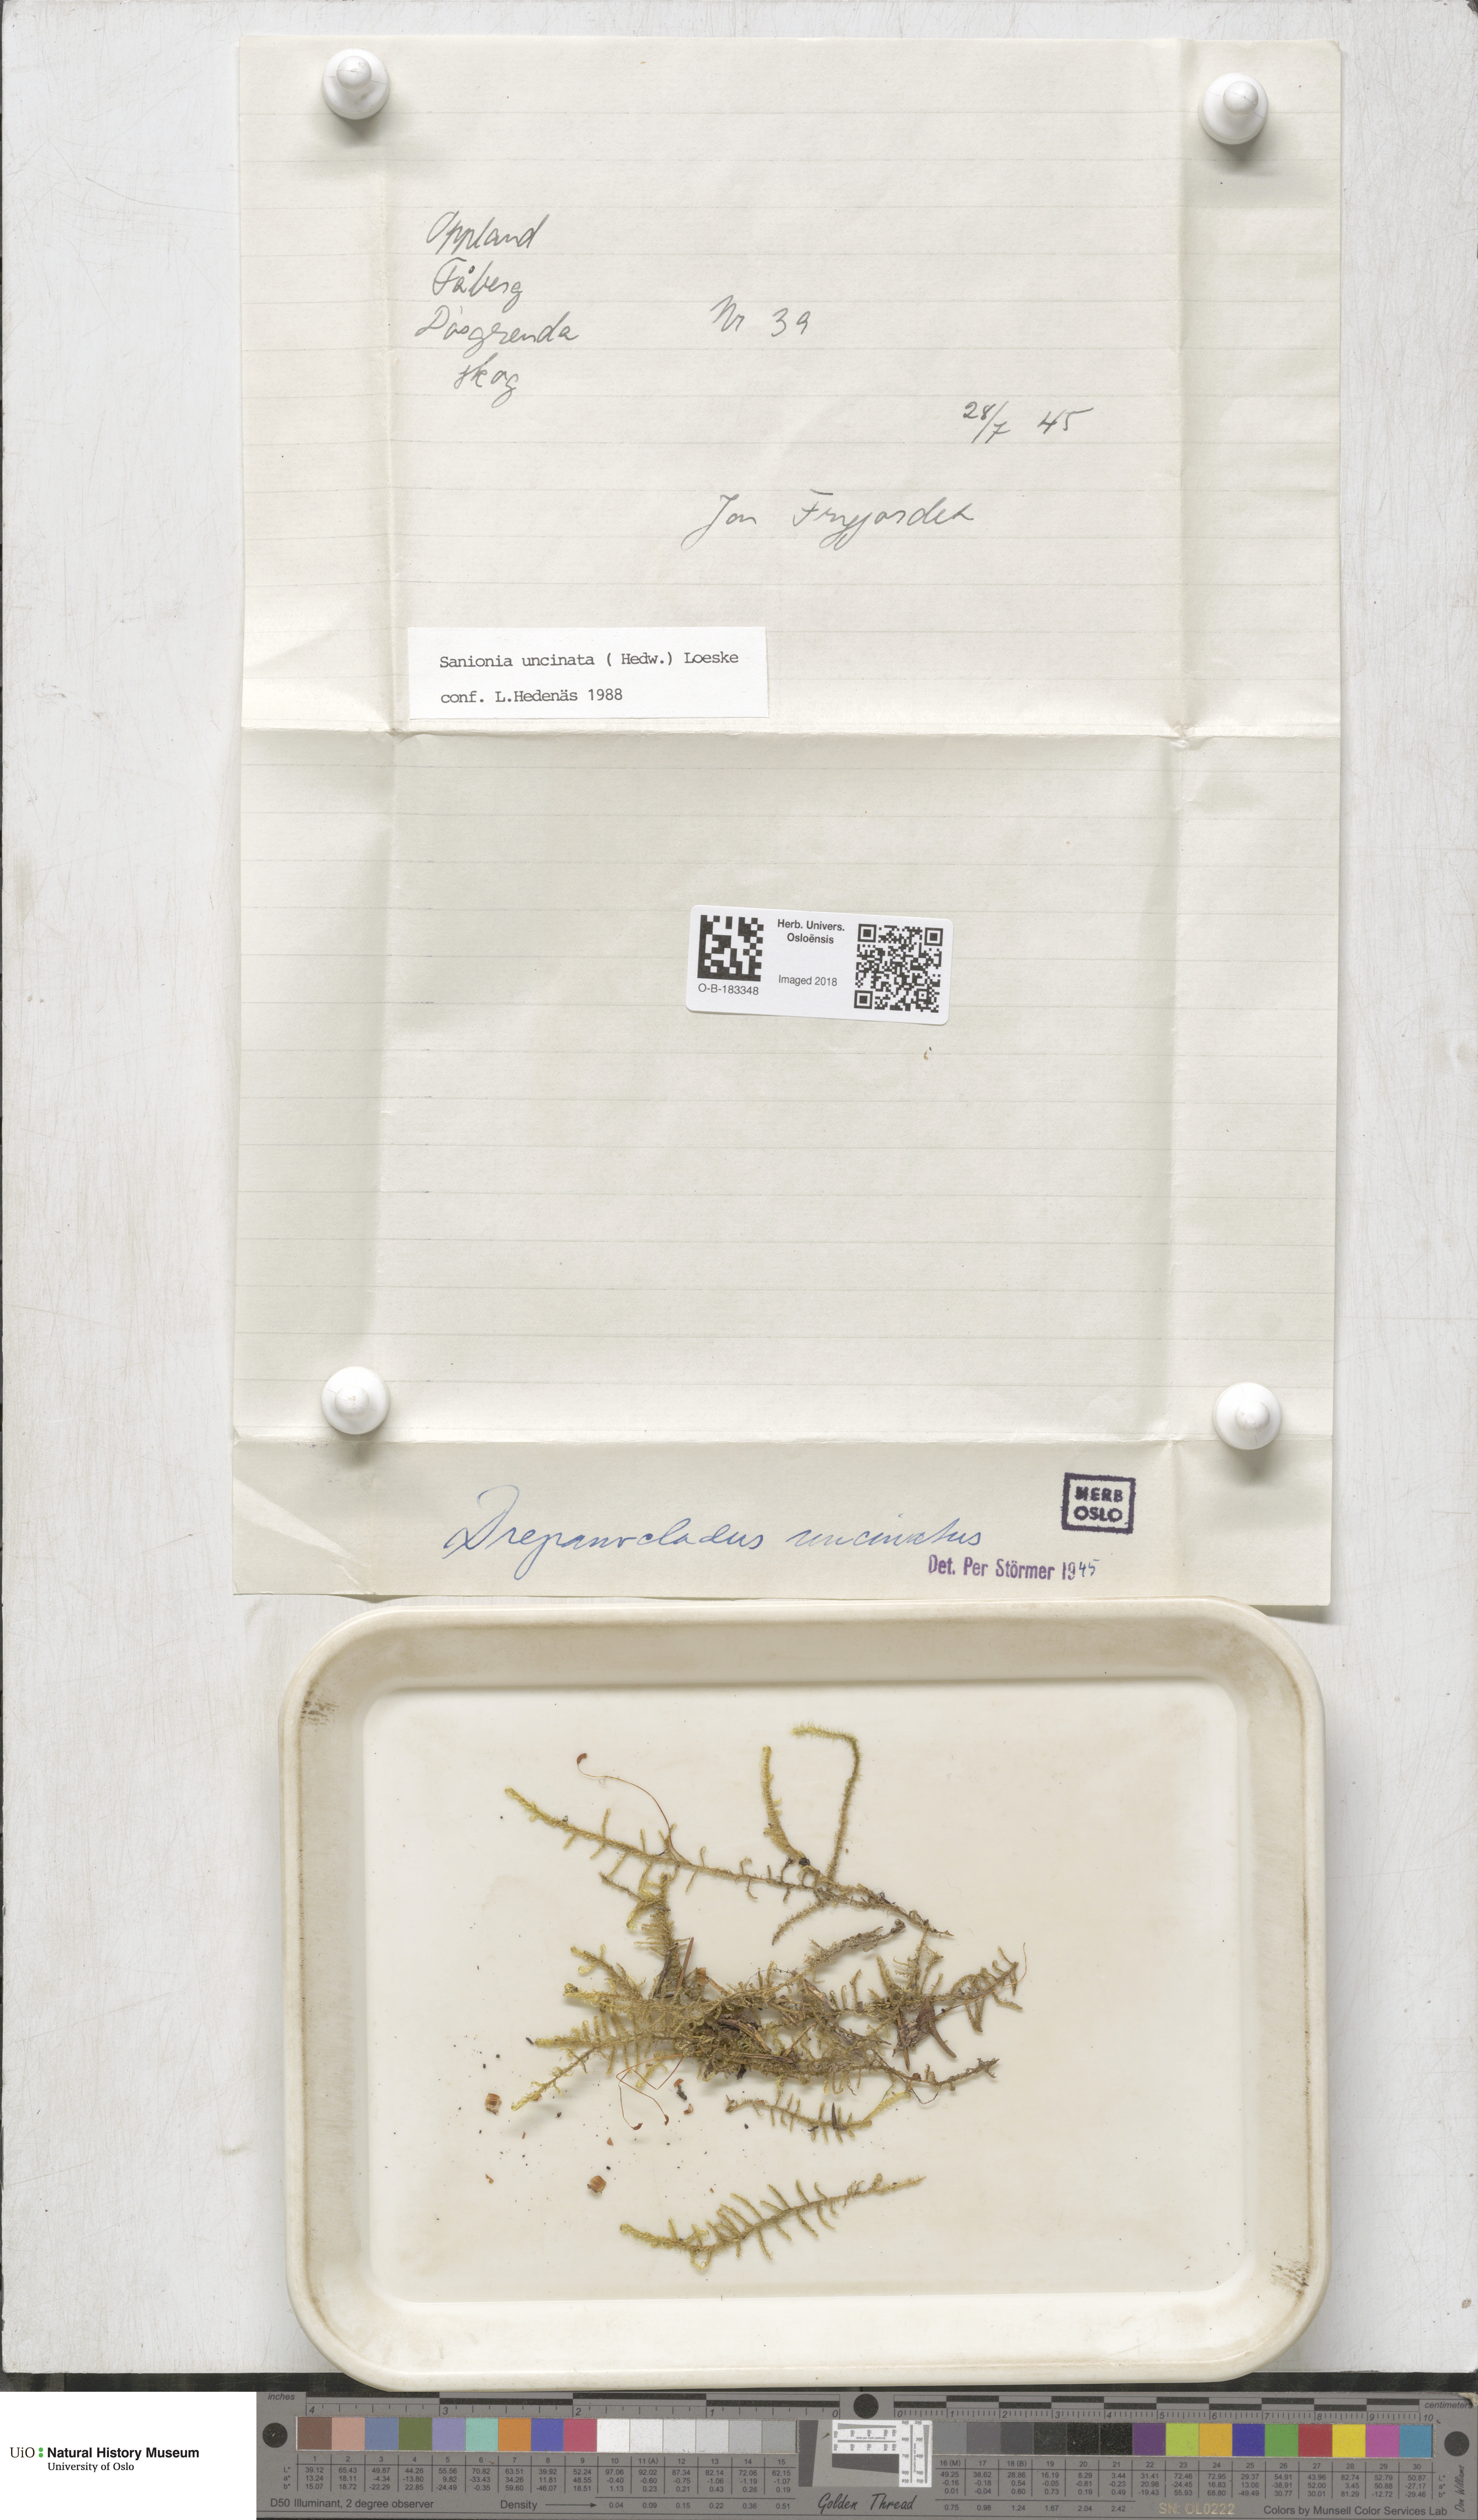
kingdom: Plantae
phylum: Bryophyta
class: Bryopsida
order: Hypnales
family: Scorpidiaceae
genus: Sanionia
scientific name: Sanionia uncinata
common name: Sickle moss
